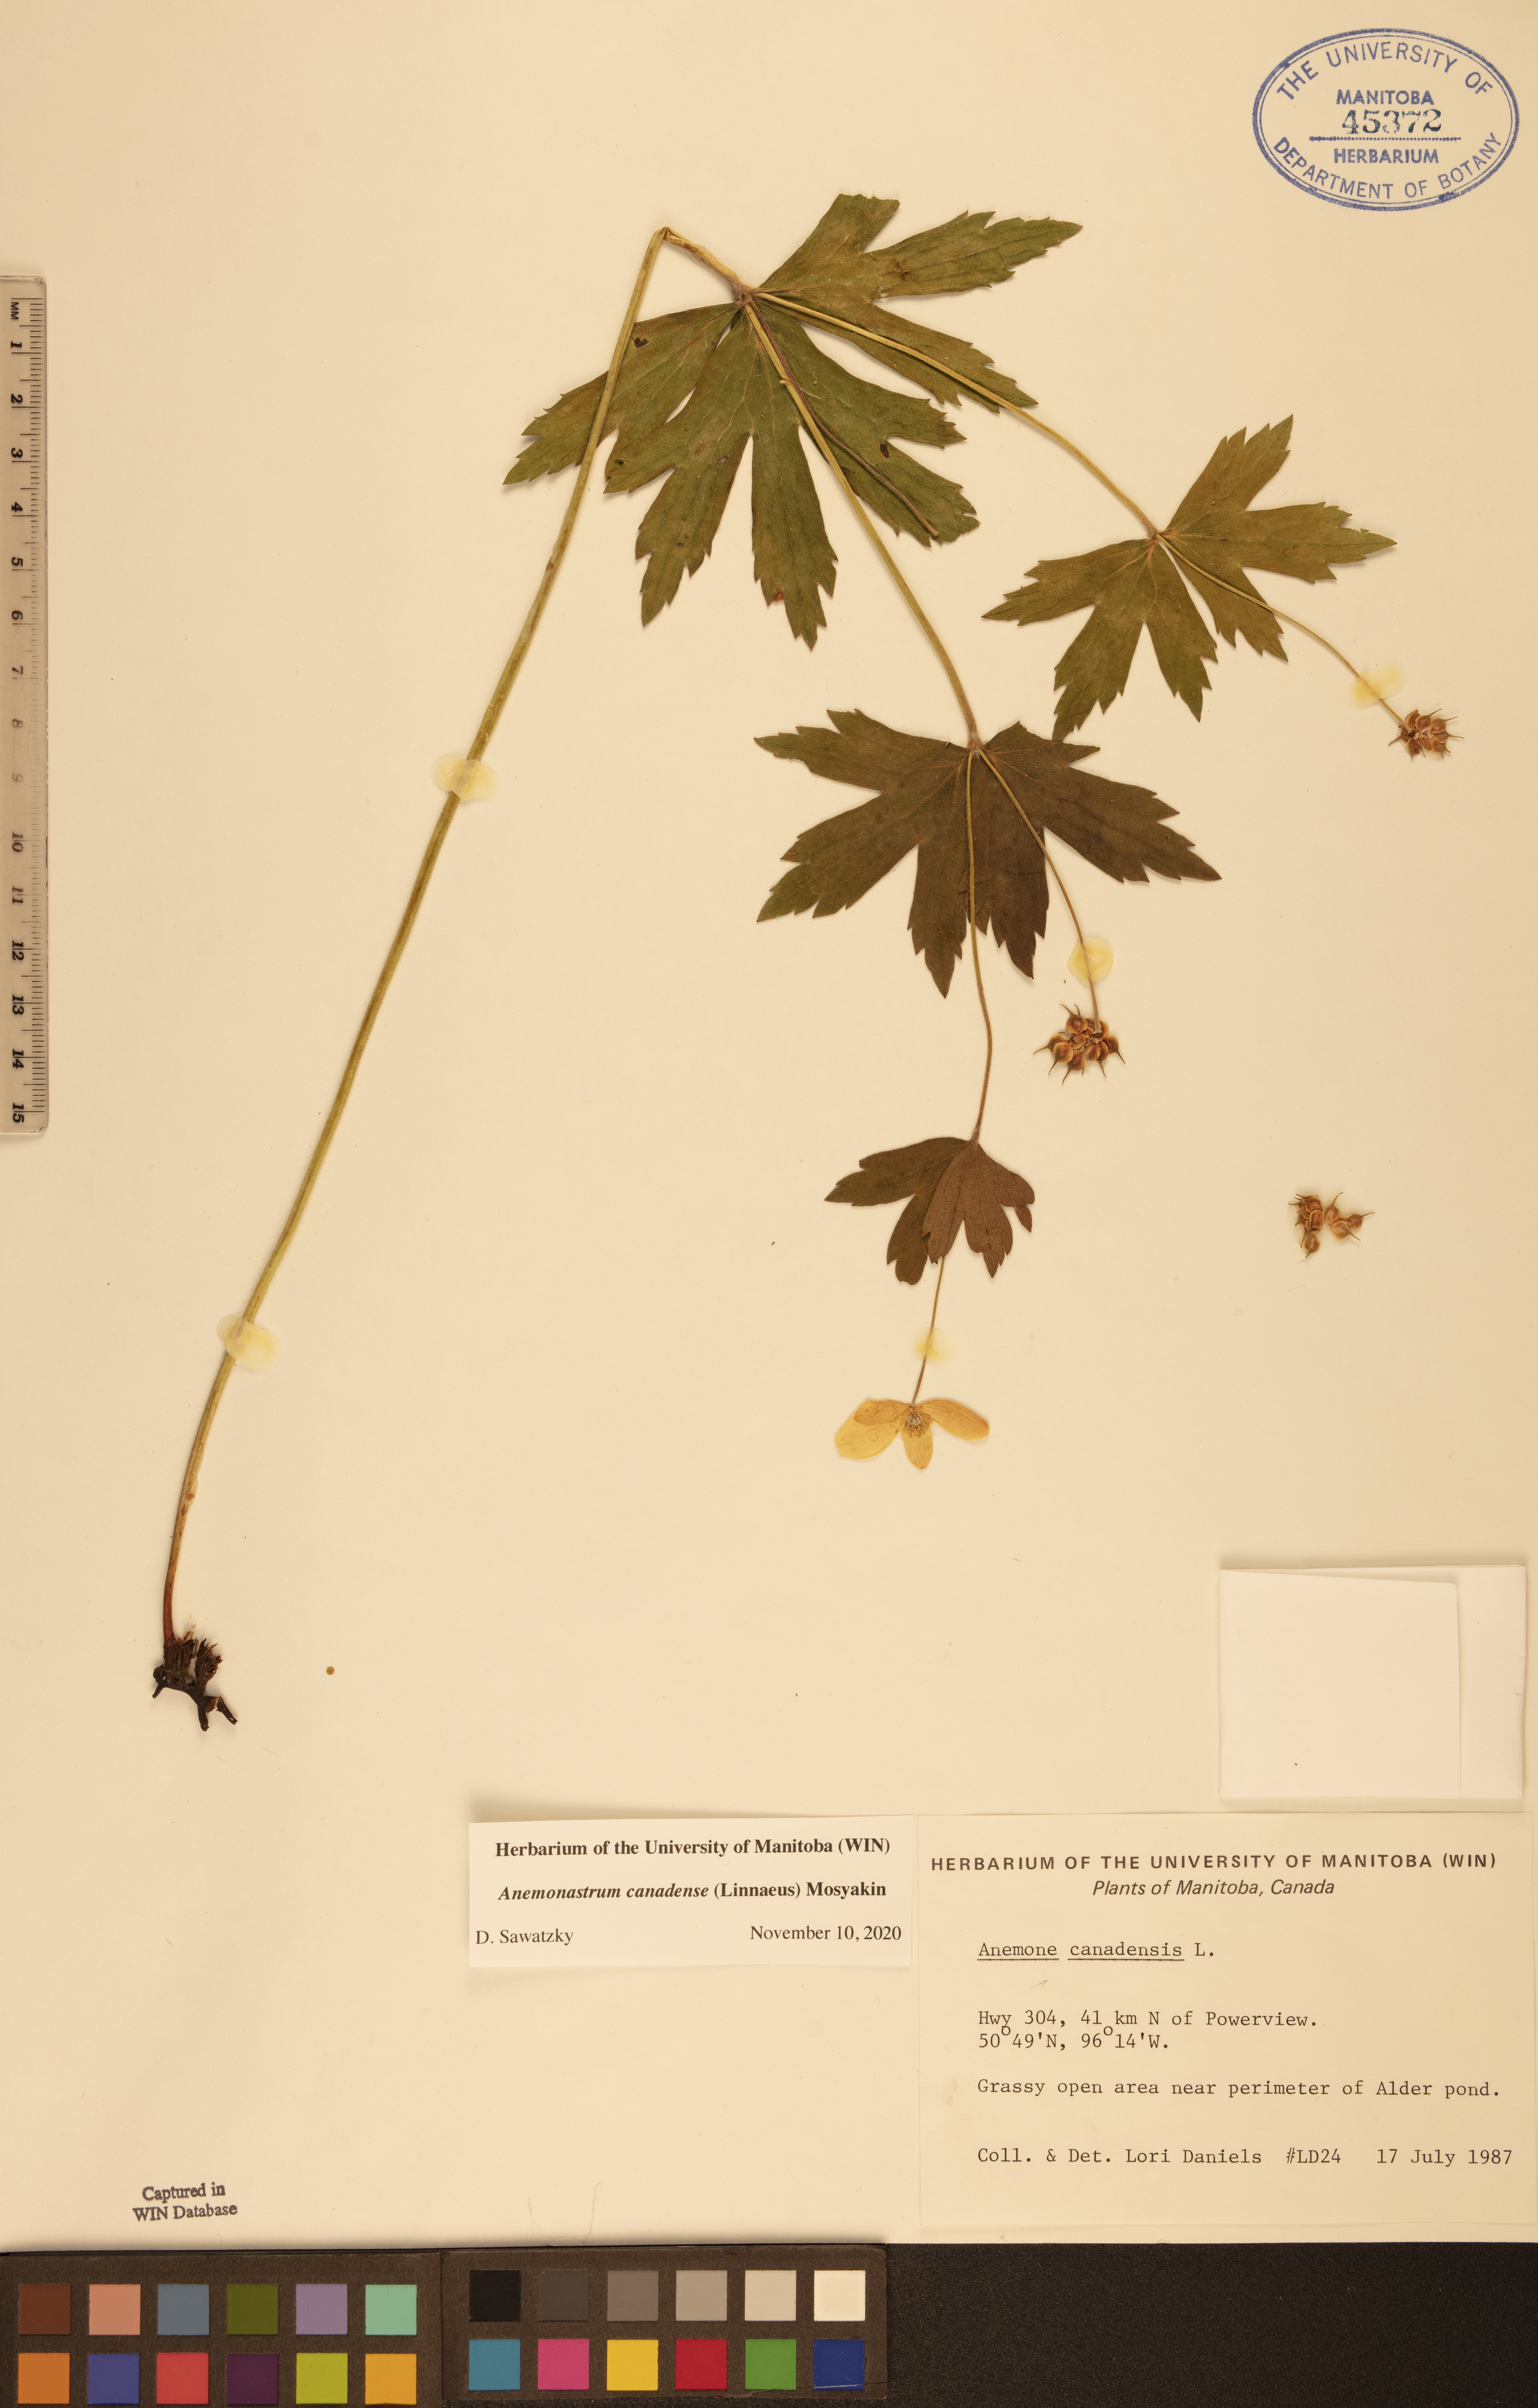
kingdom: Plantae
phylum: Tracheophyta
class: Magnoliopsida
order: Ranunculales
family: Ranunculaceae
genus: Anemonastrum
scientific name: Anemonastrum canadense
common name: Canada anemone
